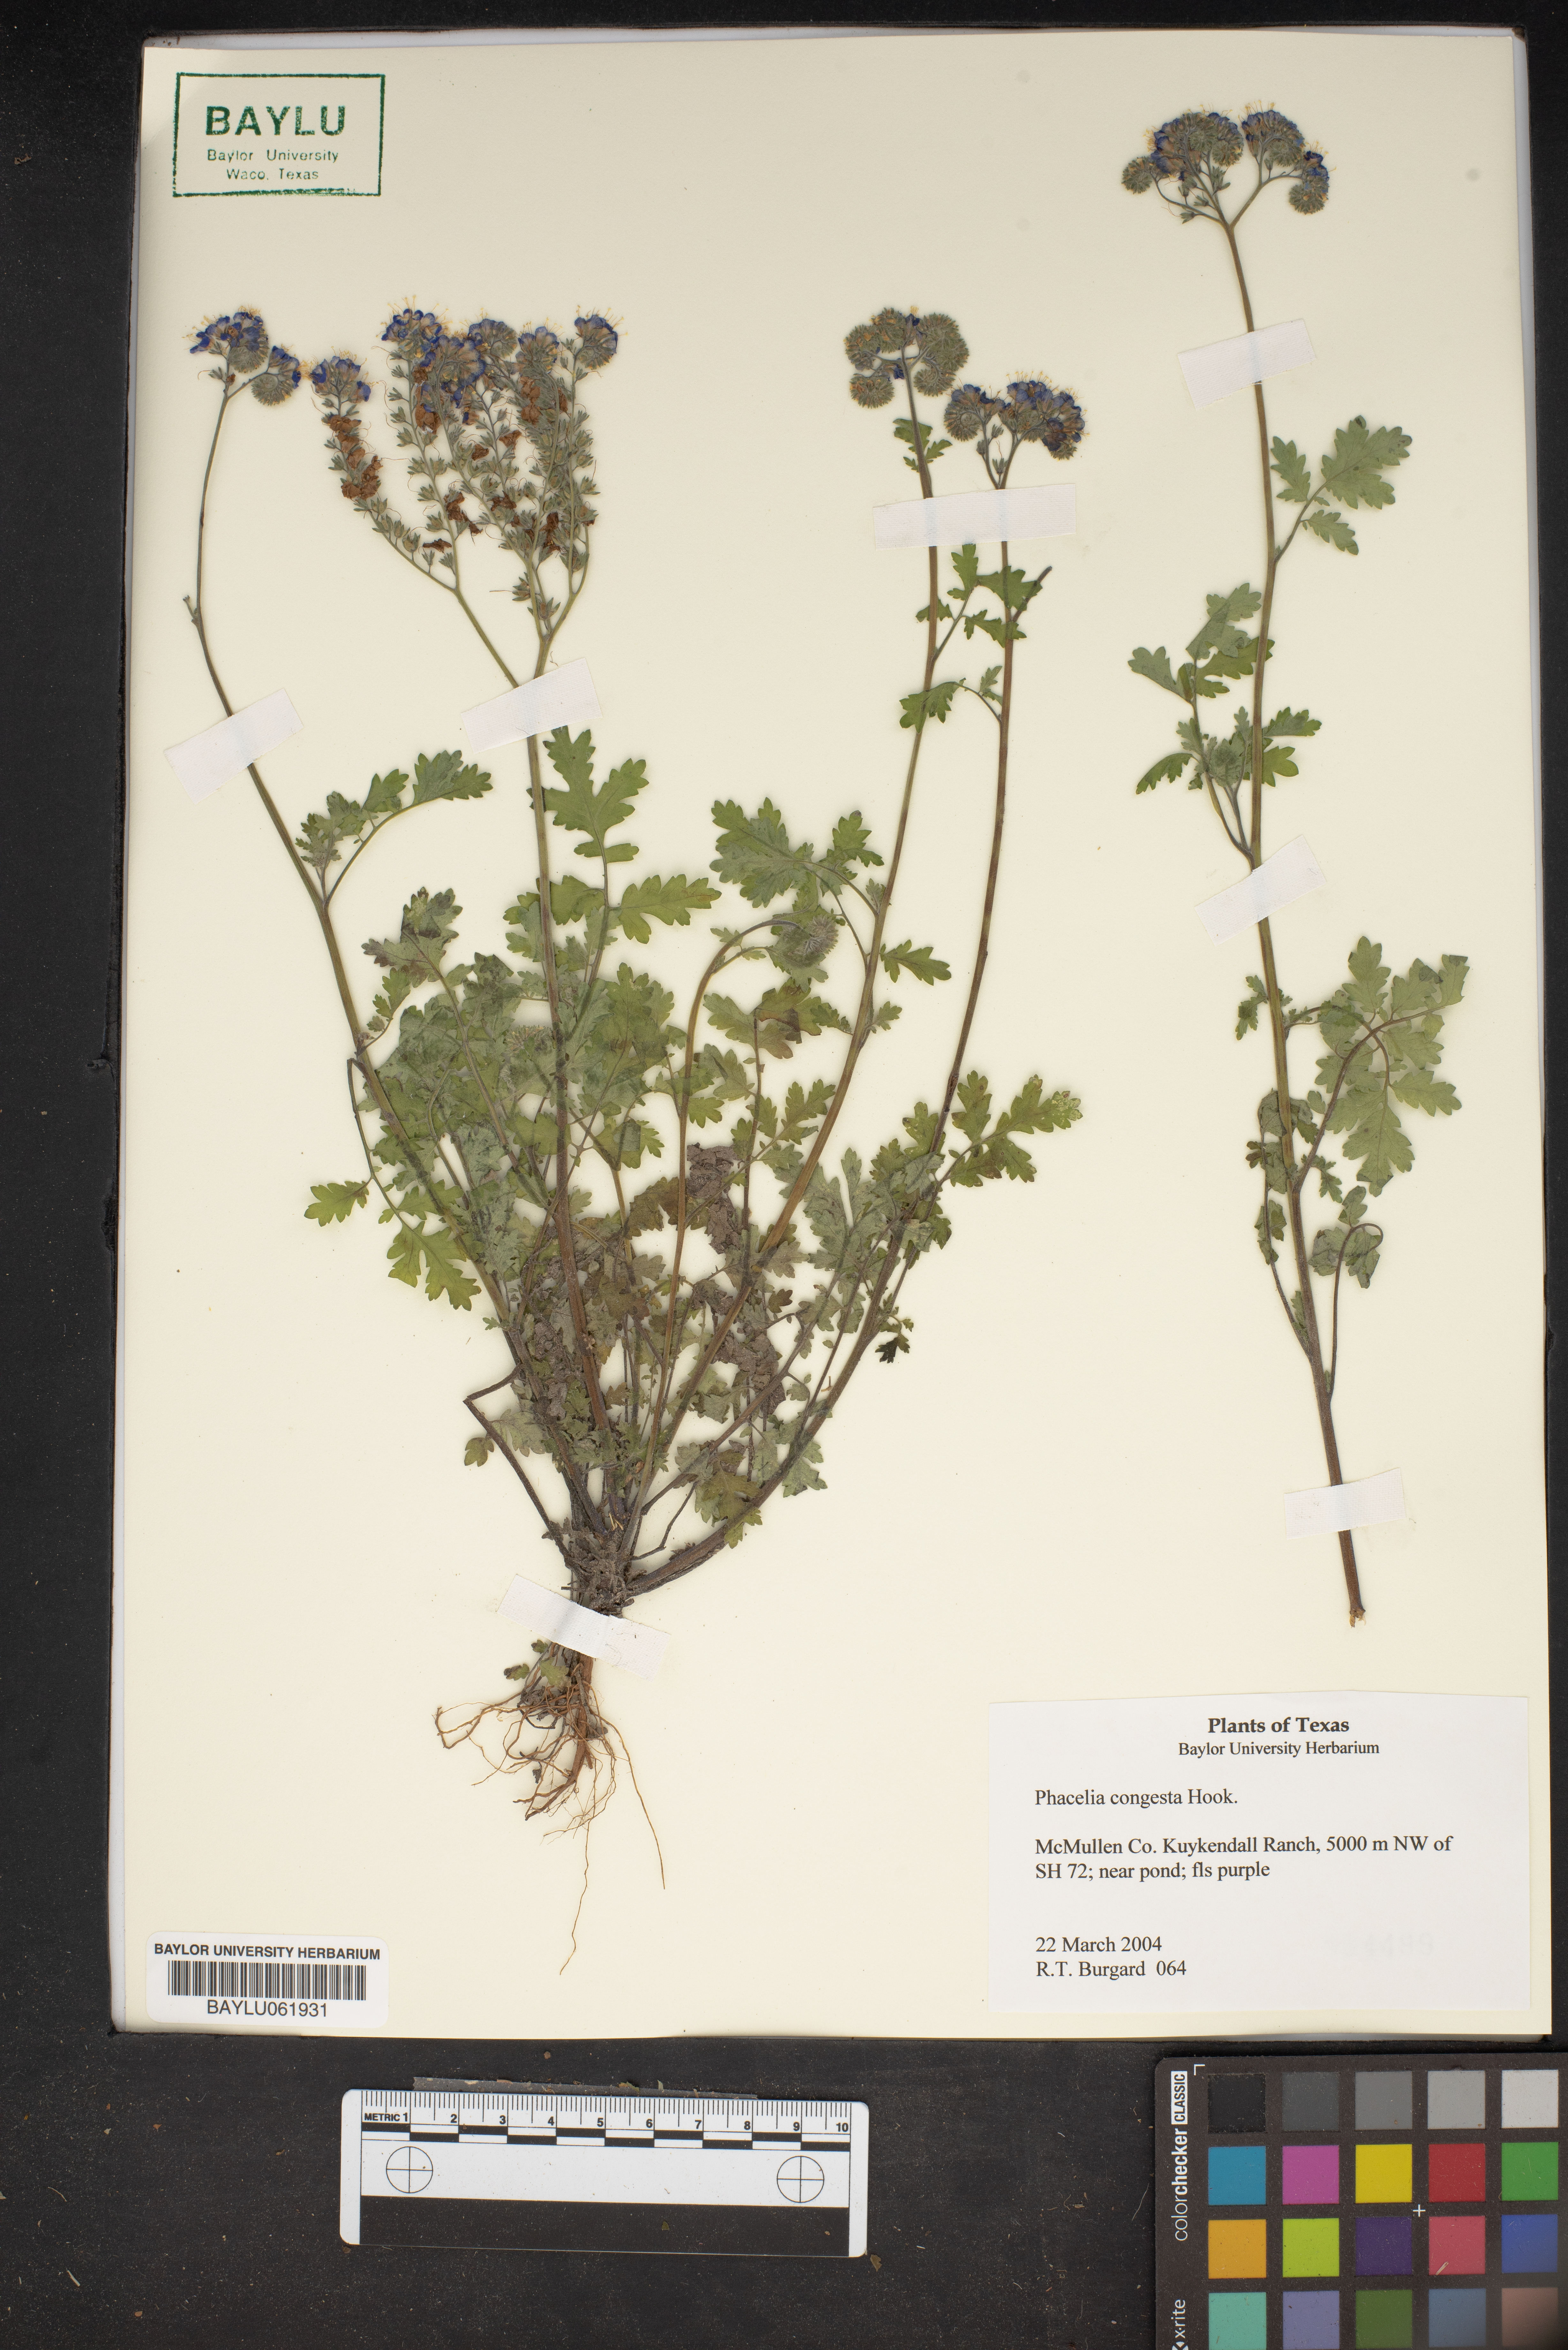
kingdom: Plantae
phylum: Tracheophyta
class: Magnoliopsida
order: Boraginales
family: Hydrophyllaceae
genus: Phacelia
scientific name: Phacelia congesta
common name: Blue curls
